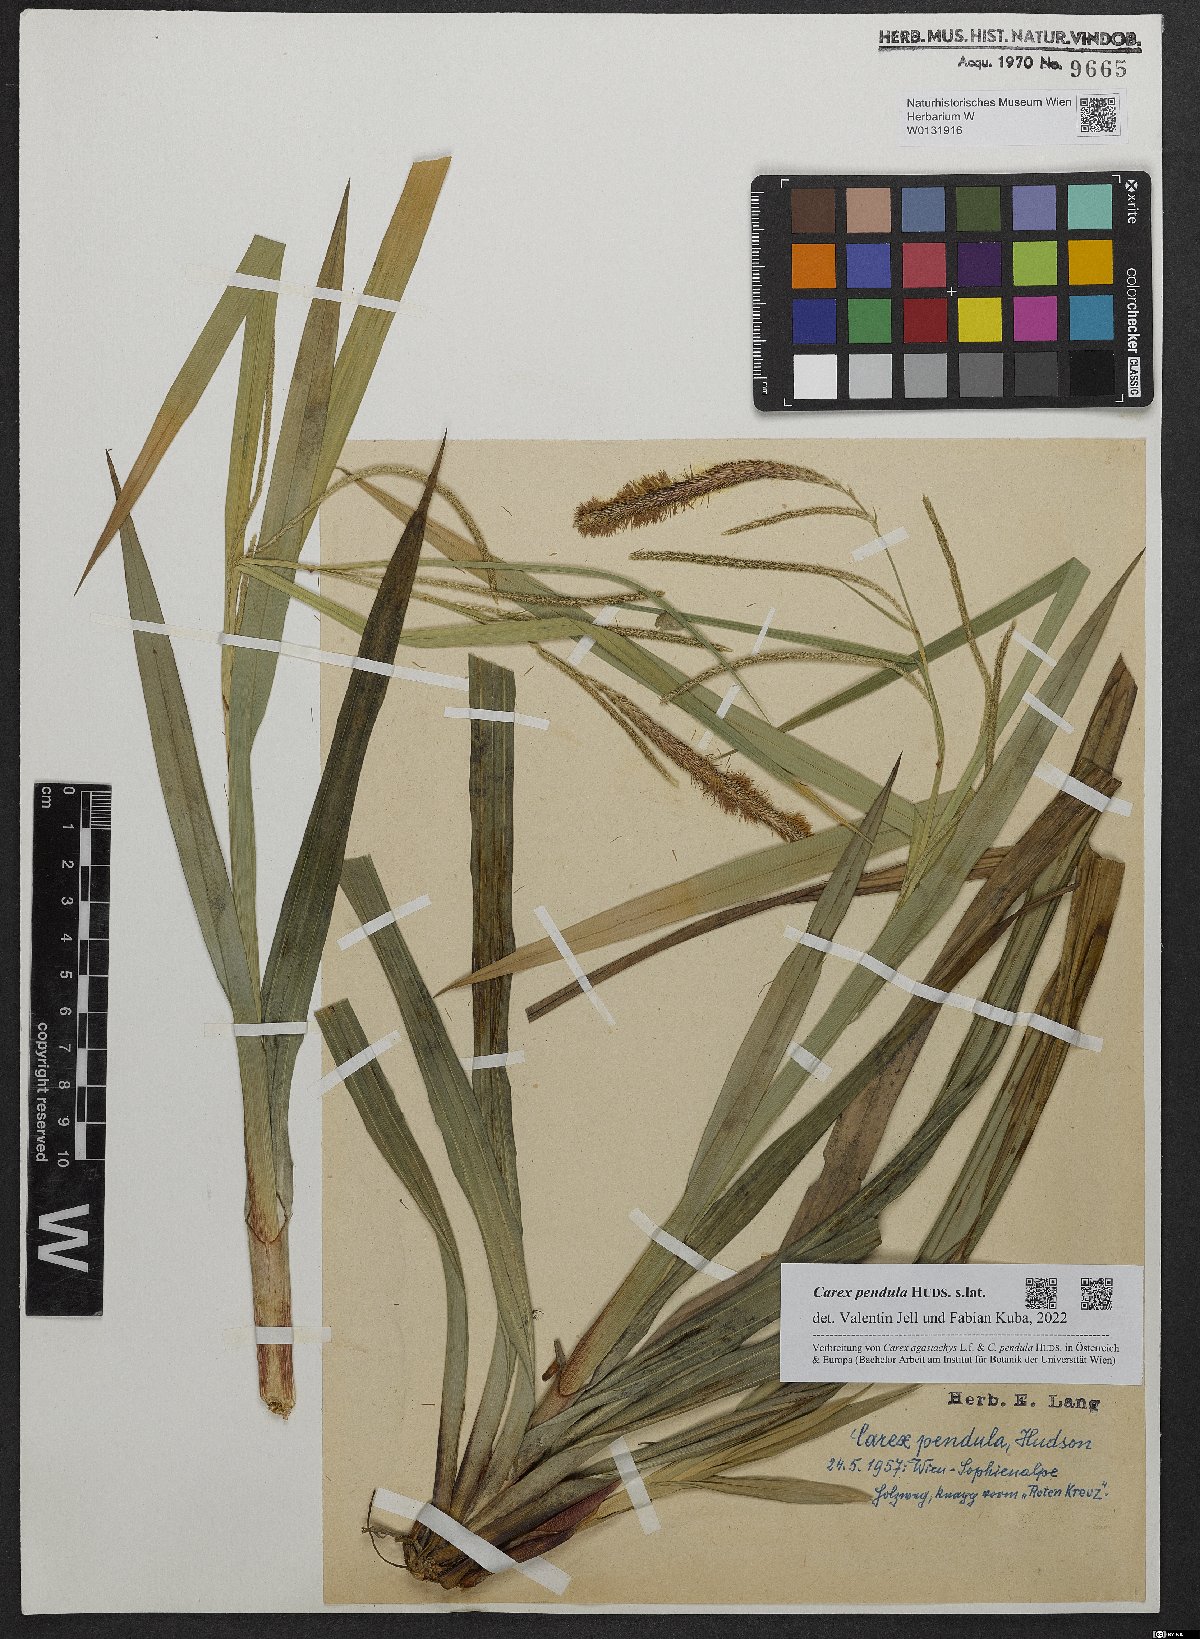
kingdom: Plantae
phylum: Tracheophyta
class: Liliopsida
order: Poales
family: Cyperaceae
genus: Carex
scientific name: Carex pendula
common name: Pendulous sedge
